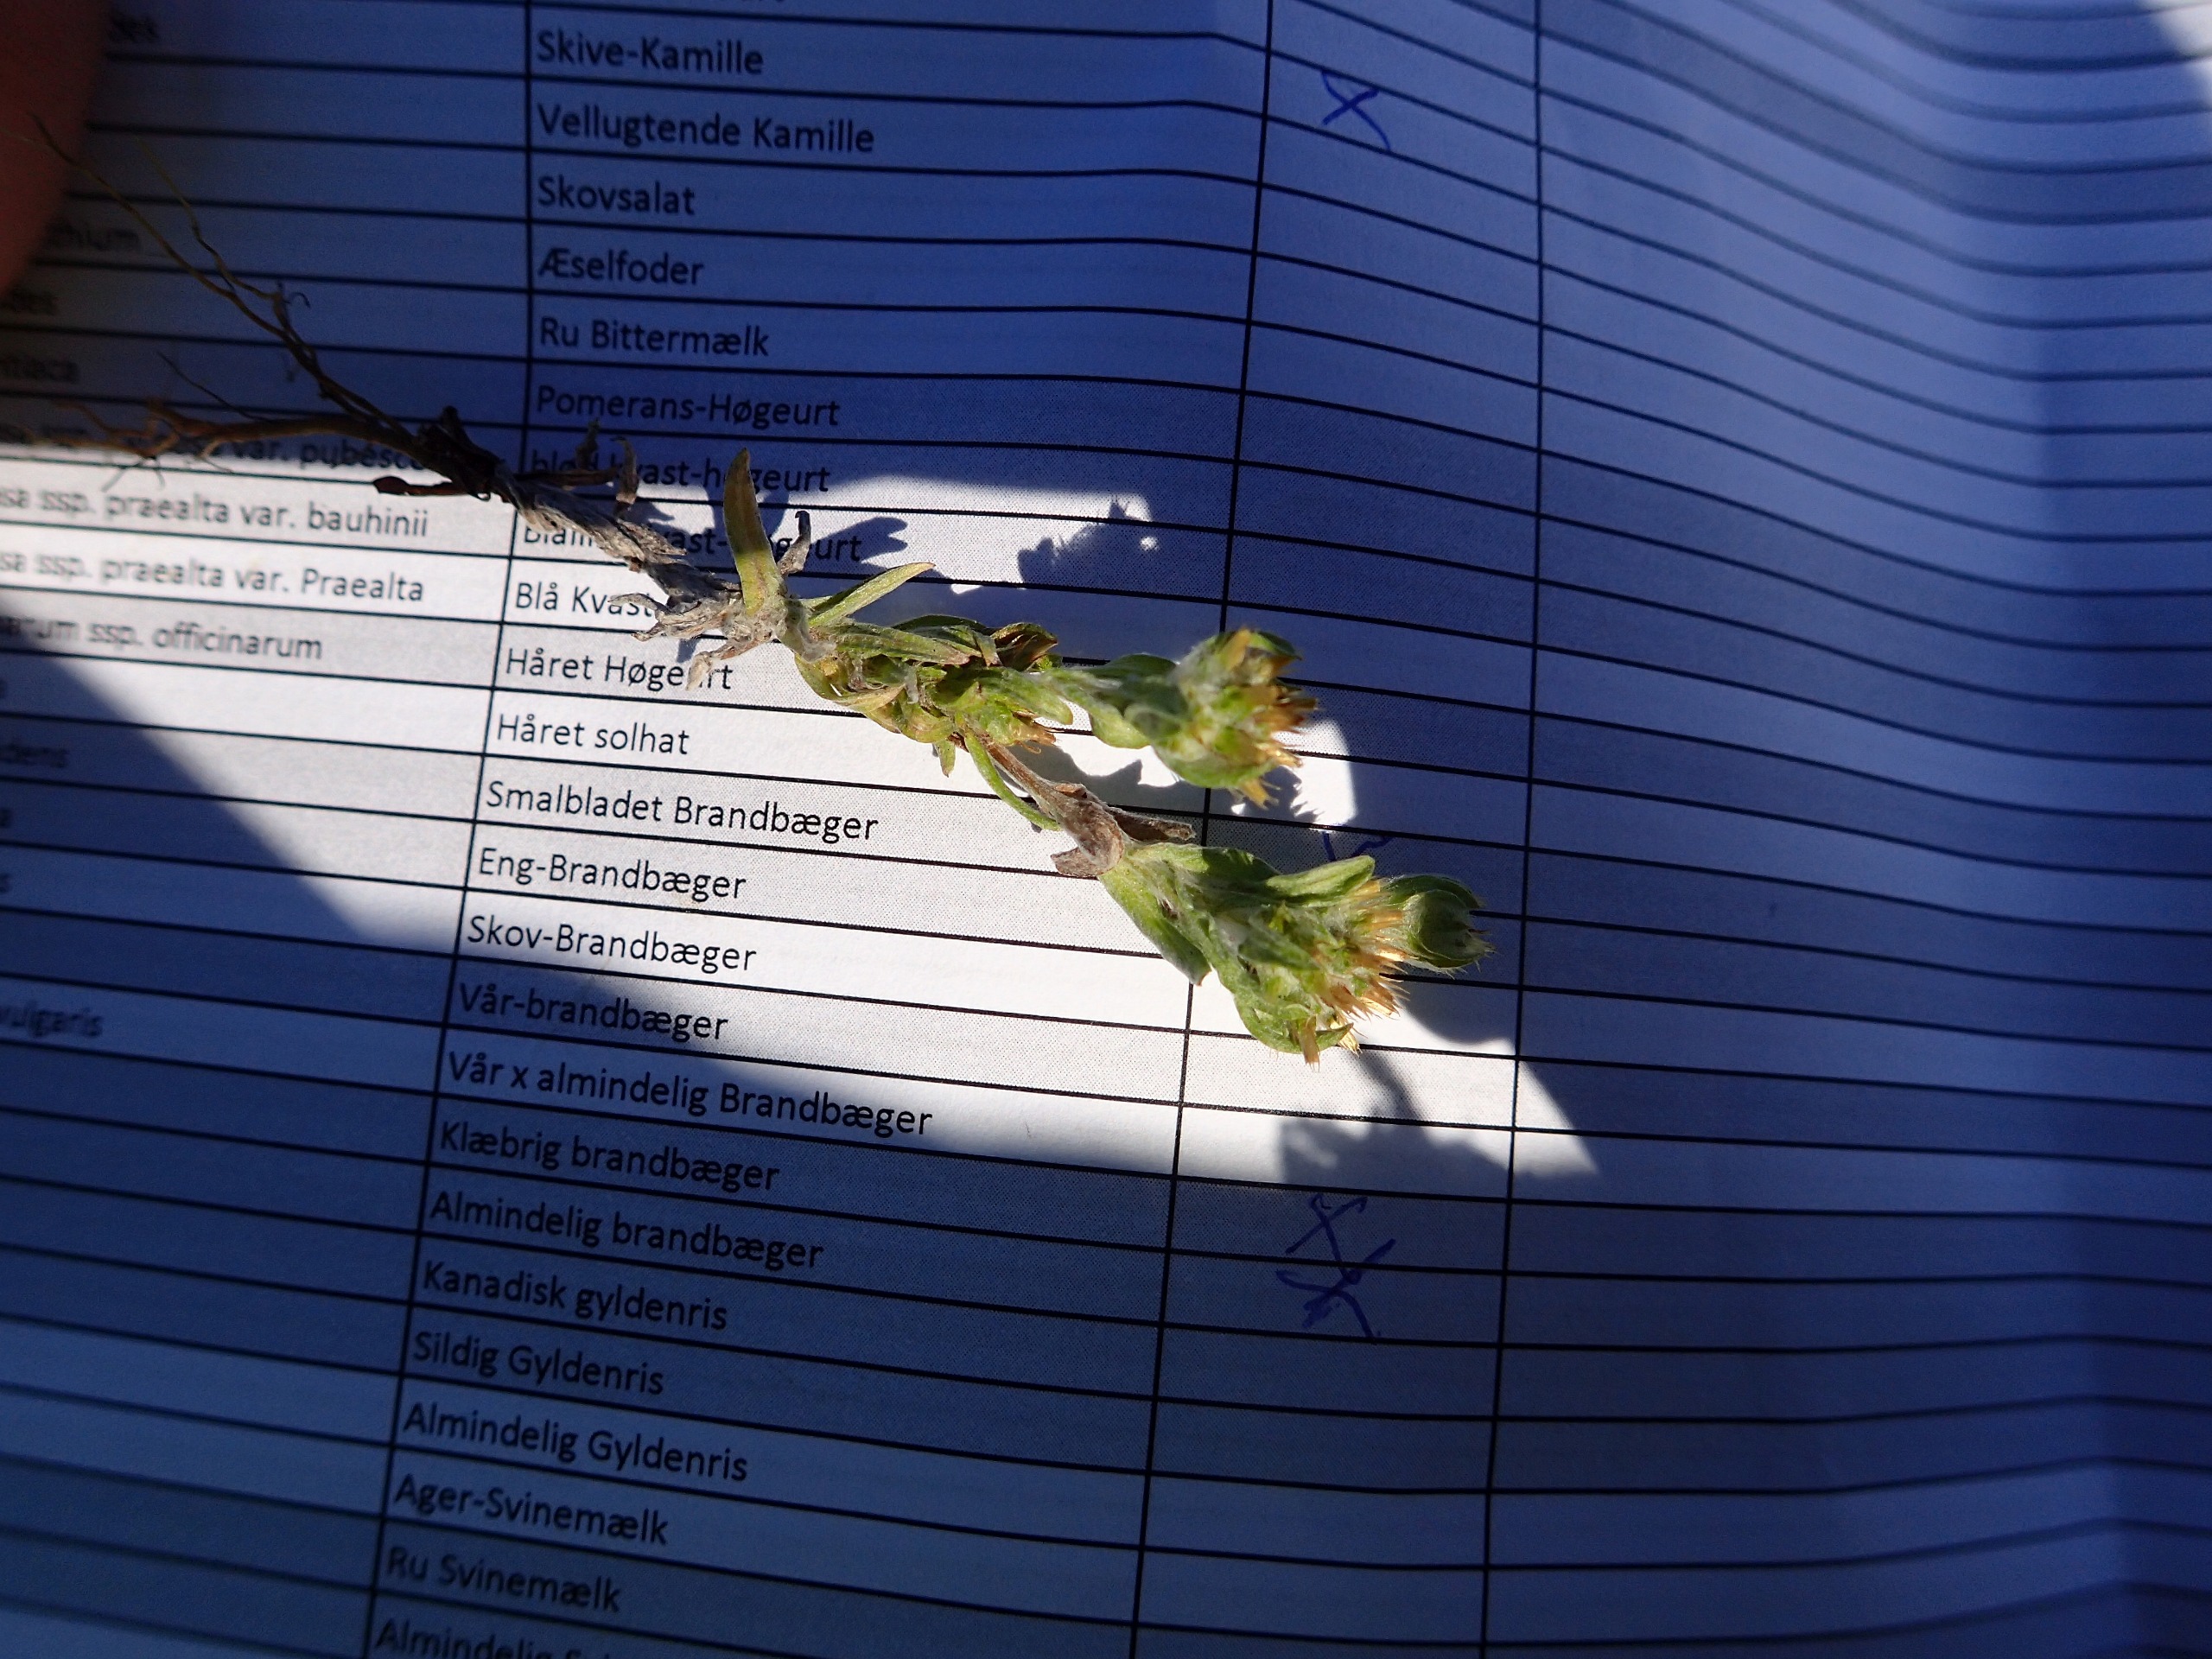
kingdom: Plantae
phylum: Tracheophyta
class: Magnoliopsida
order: Asterales
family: Asteraceae
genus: Filago
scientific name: Filago germanica
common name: Kugle-museurt
